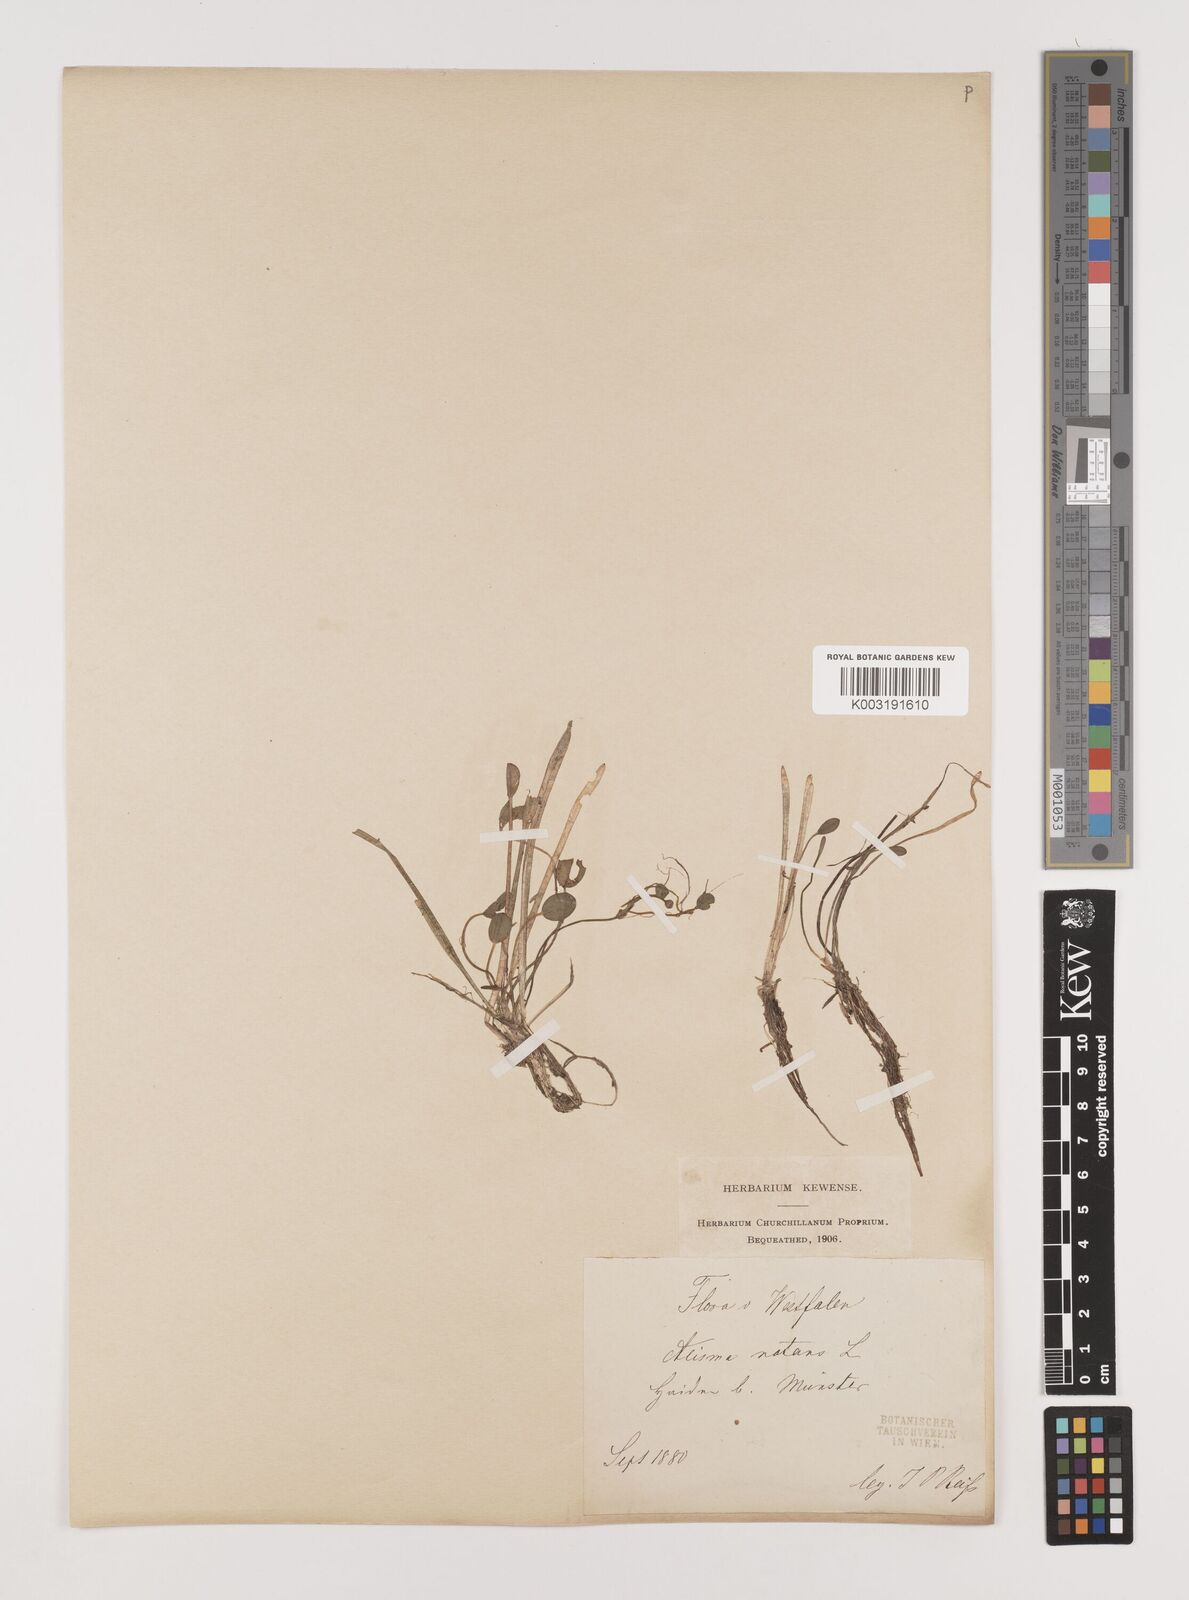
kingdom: Plantae
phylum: Tracheophyta
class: Liliopsida
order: Alismatales
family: Alismataceae
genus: Luronium
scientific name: Luronium natans
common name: Floating water-plantain
